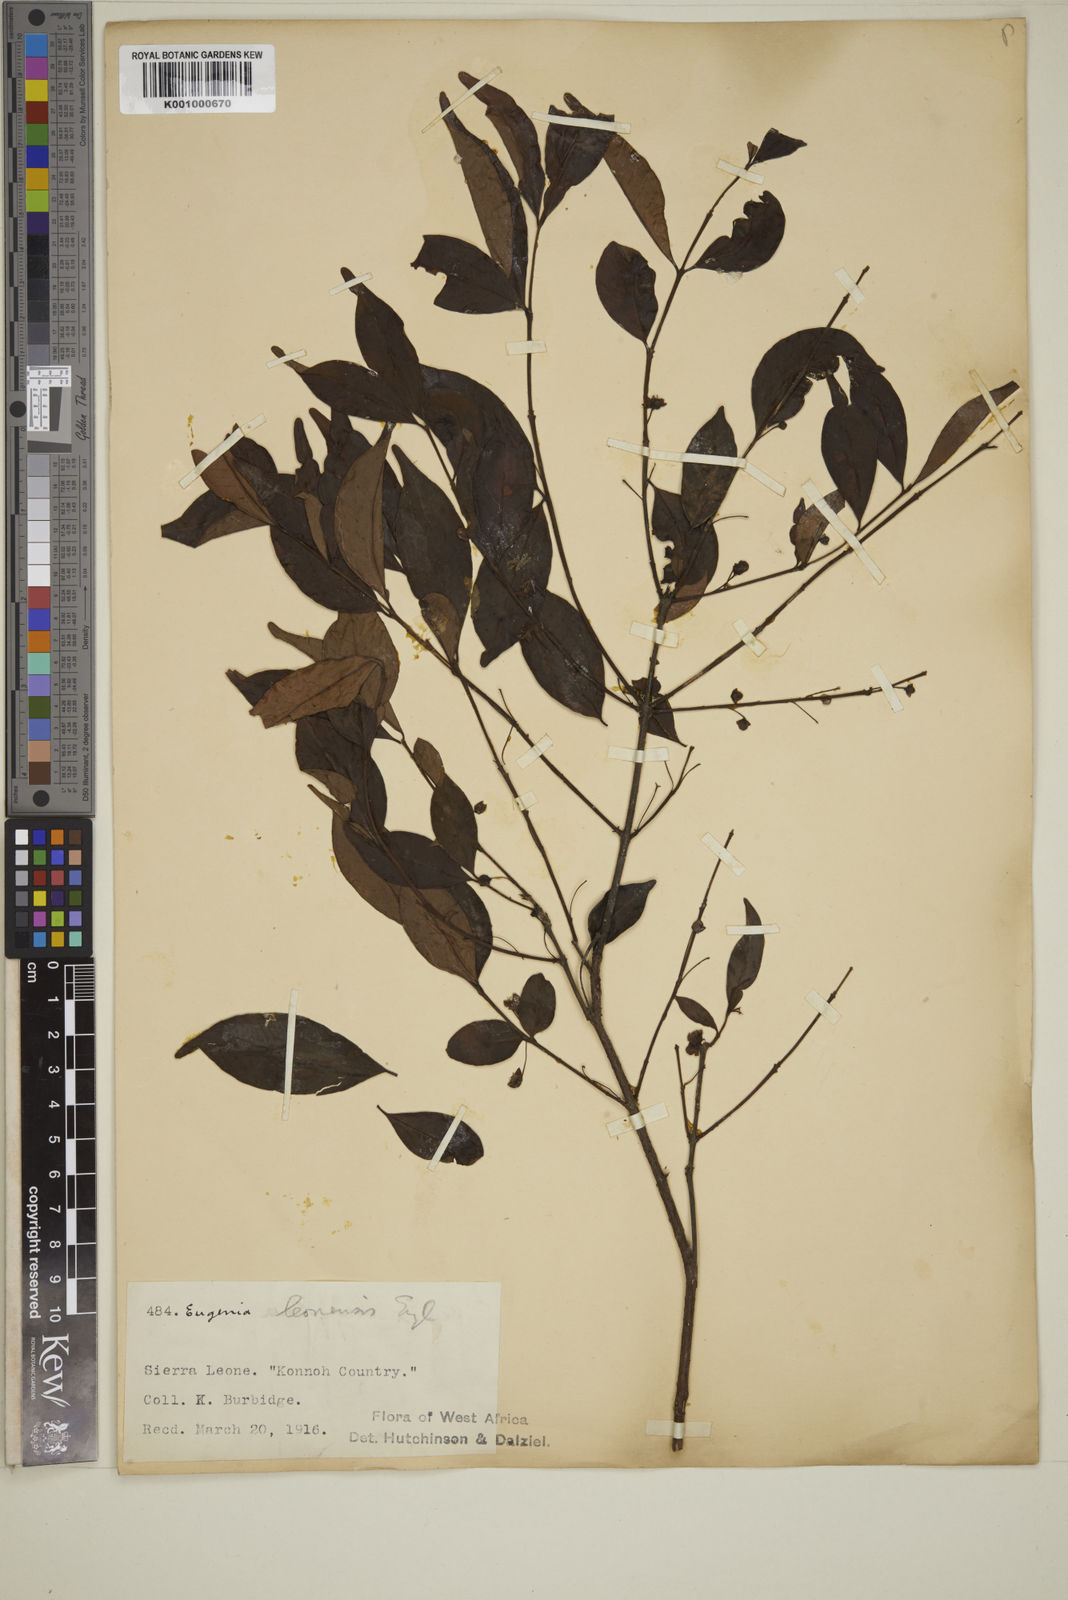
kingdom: Plantae
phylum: Tracheophyta
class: Magnoliopsida
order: Myrtales
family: Myrtaceae
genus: Eugenia
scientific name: Eugenia leonensis
